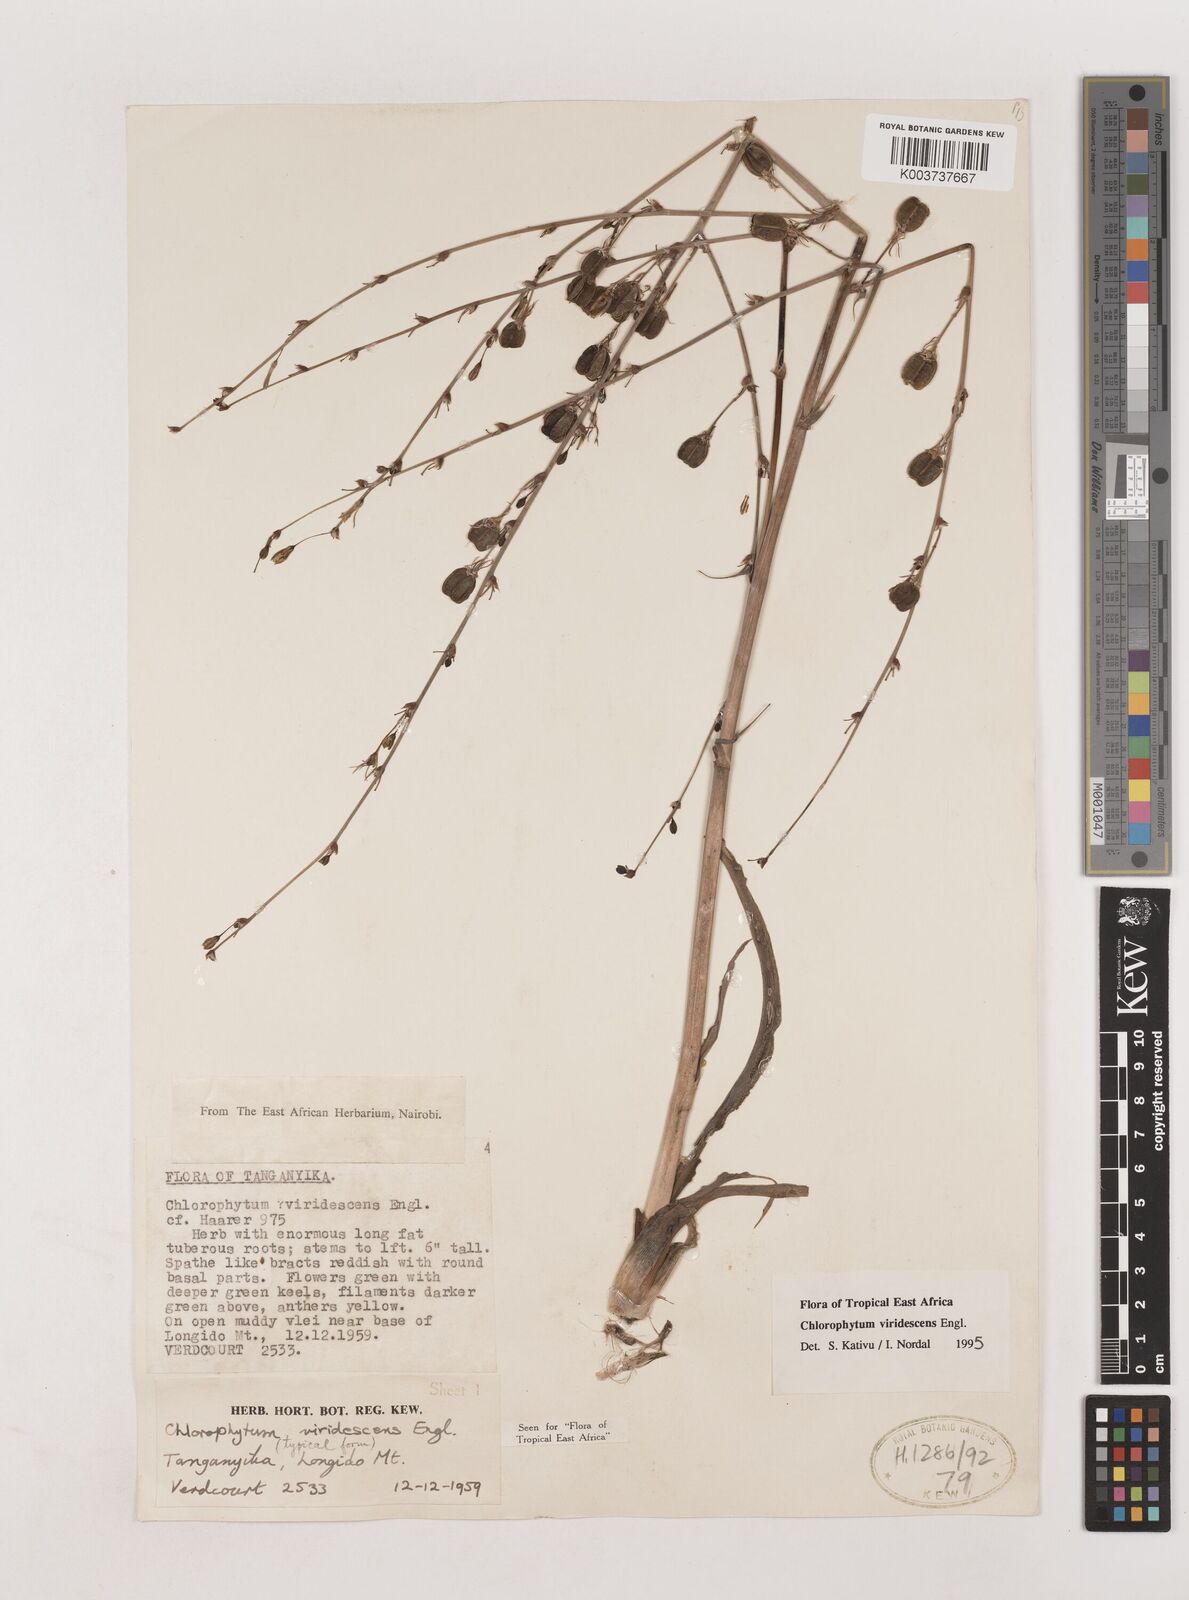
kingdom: Plantae
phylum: Tracheophyta
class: Liliopsida
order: Asparagales
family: Asparagaceae
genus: Chlorophytum
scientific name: Chlorophytum viridescens
